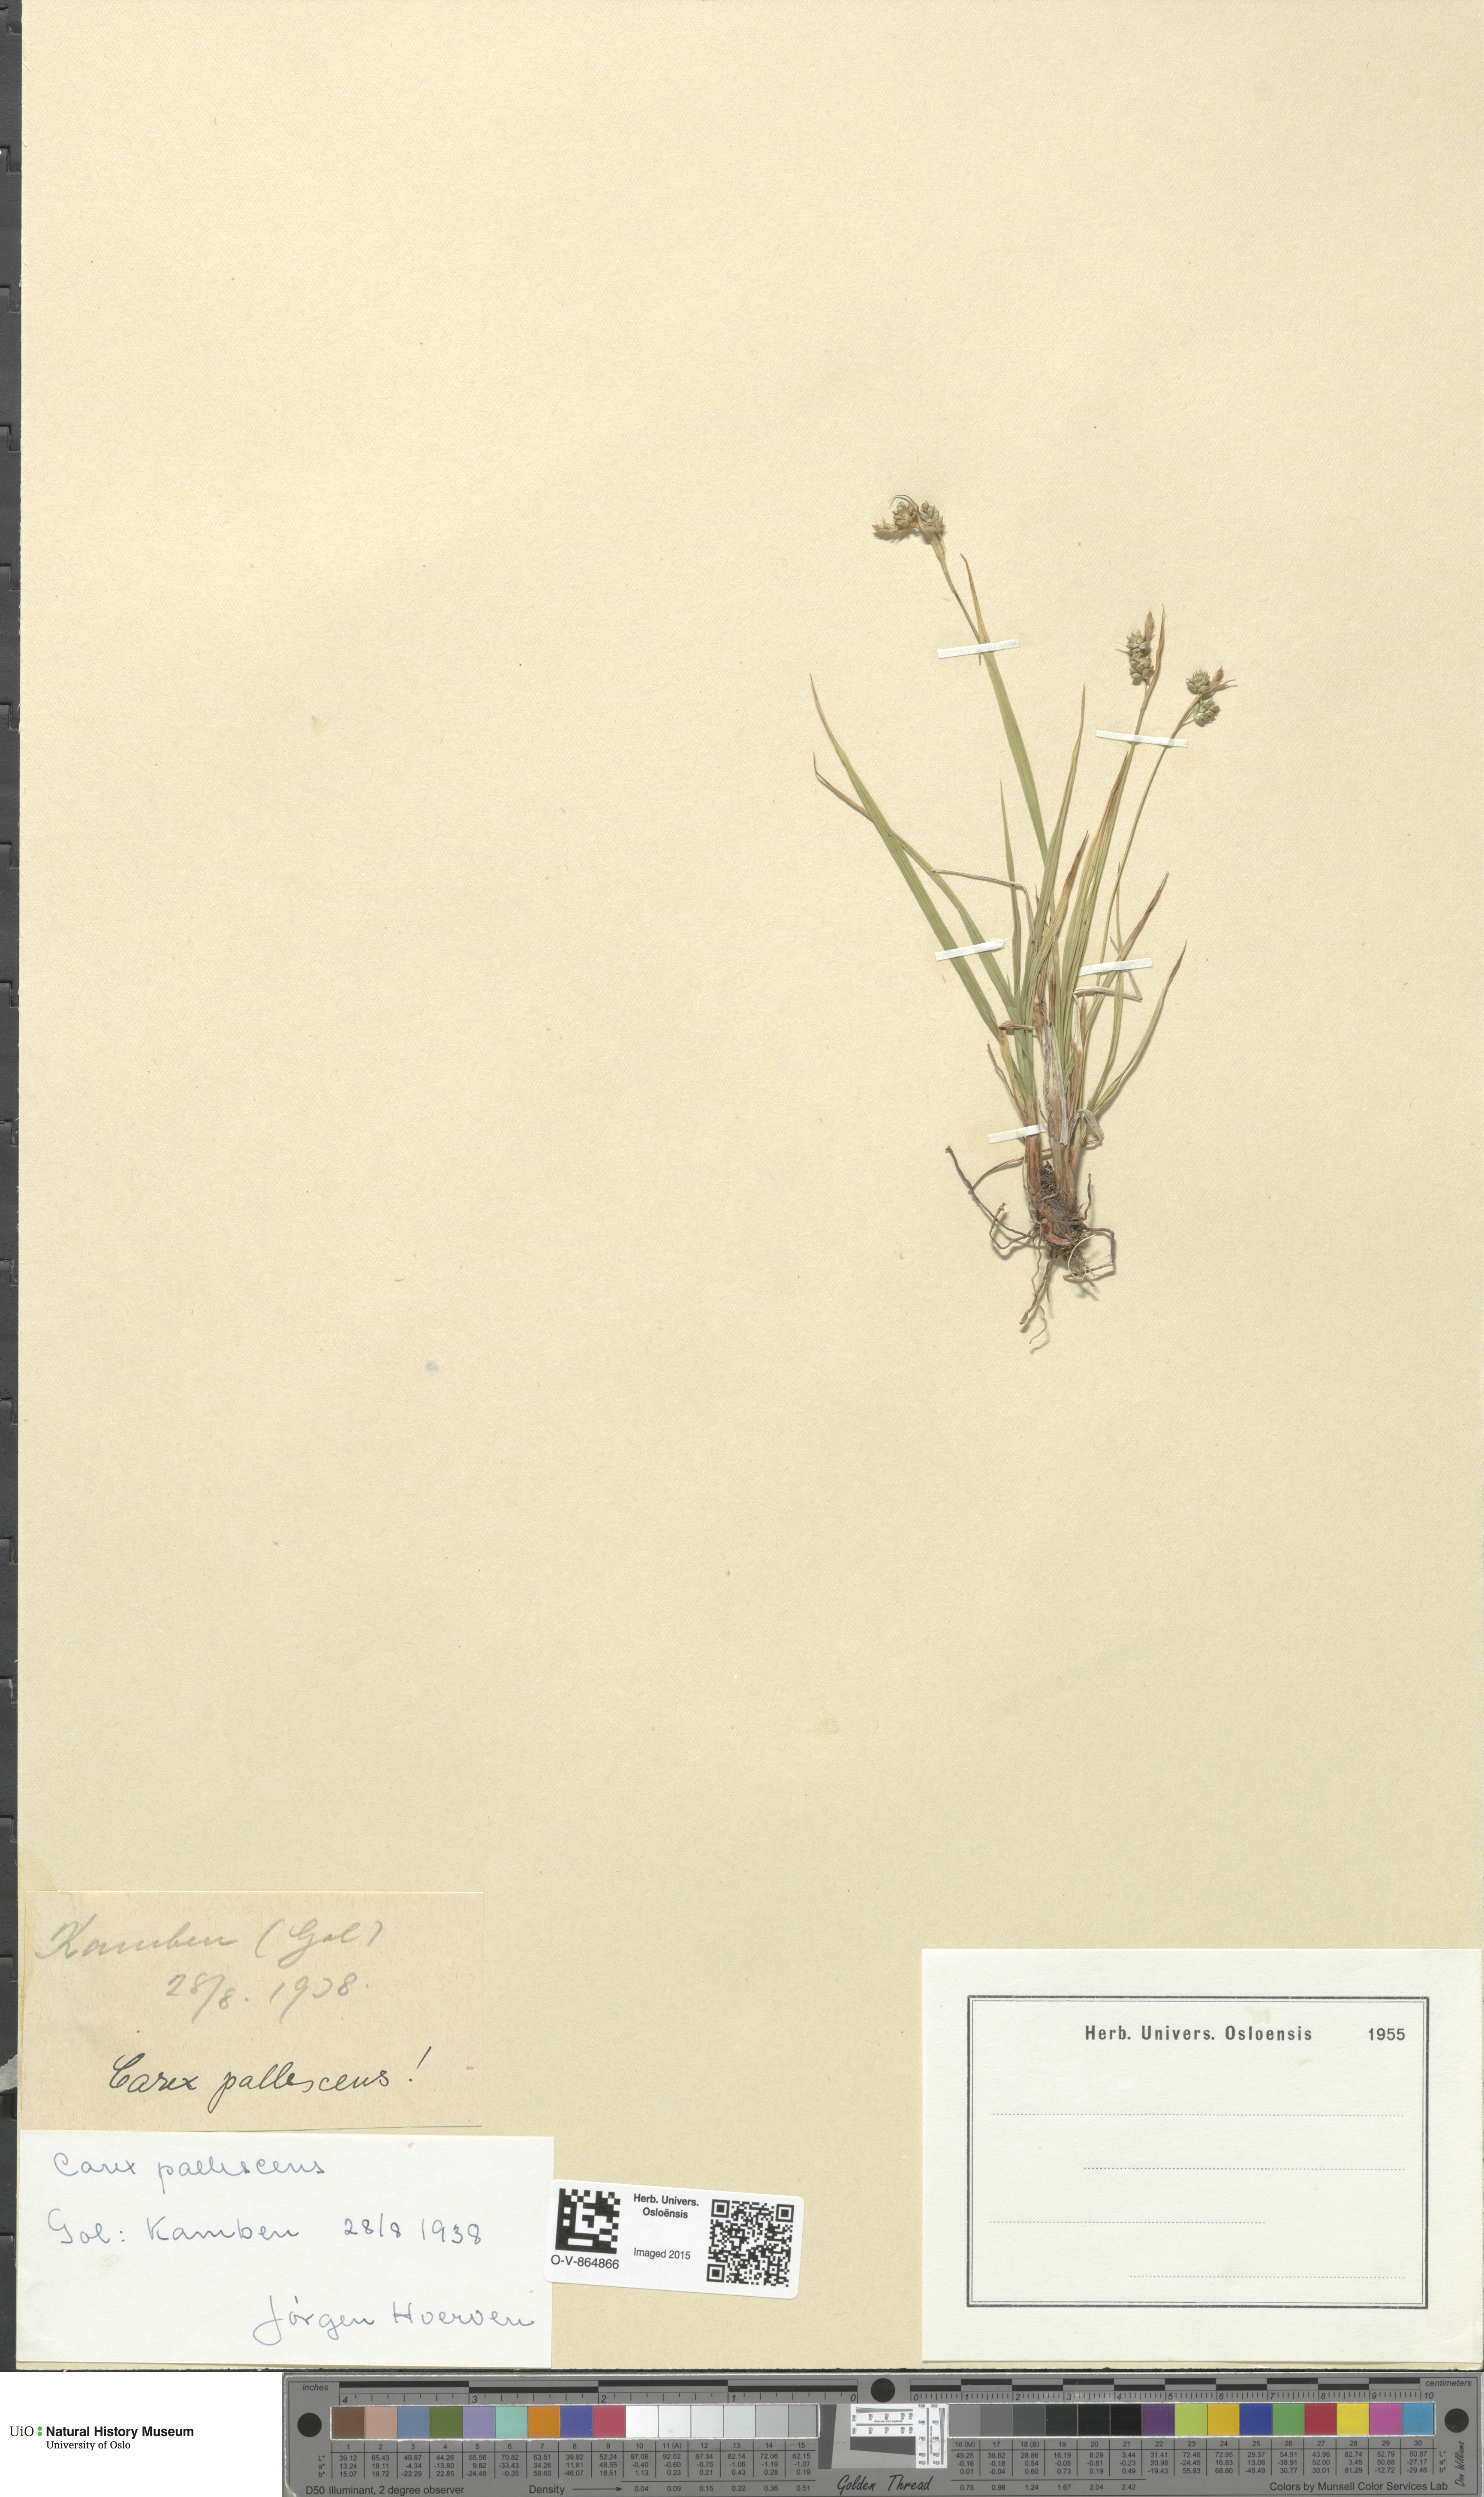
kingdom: Plantae
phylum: Tracheophyta
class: Liliopsida
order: Poales
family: Cyperaceae
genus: Carex
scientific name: Carex pallescens
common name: Pale sedge
